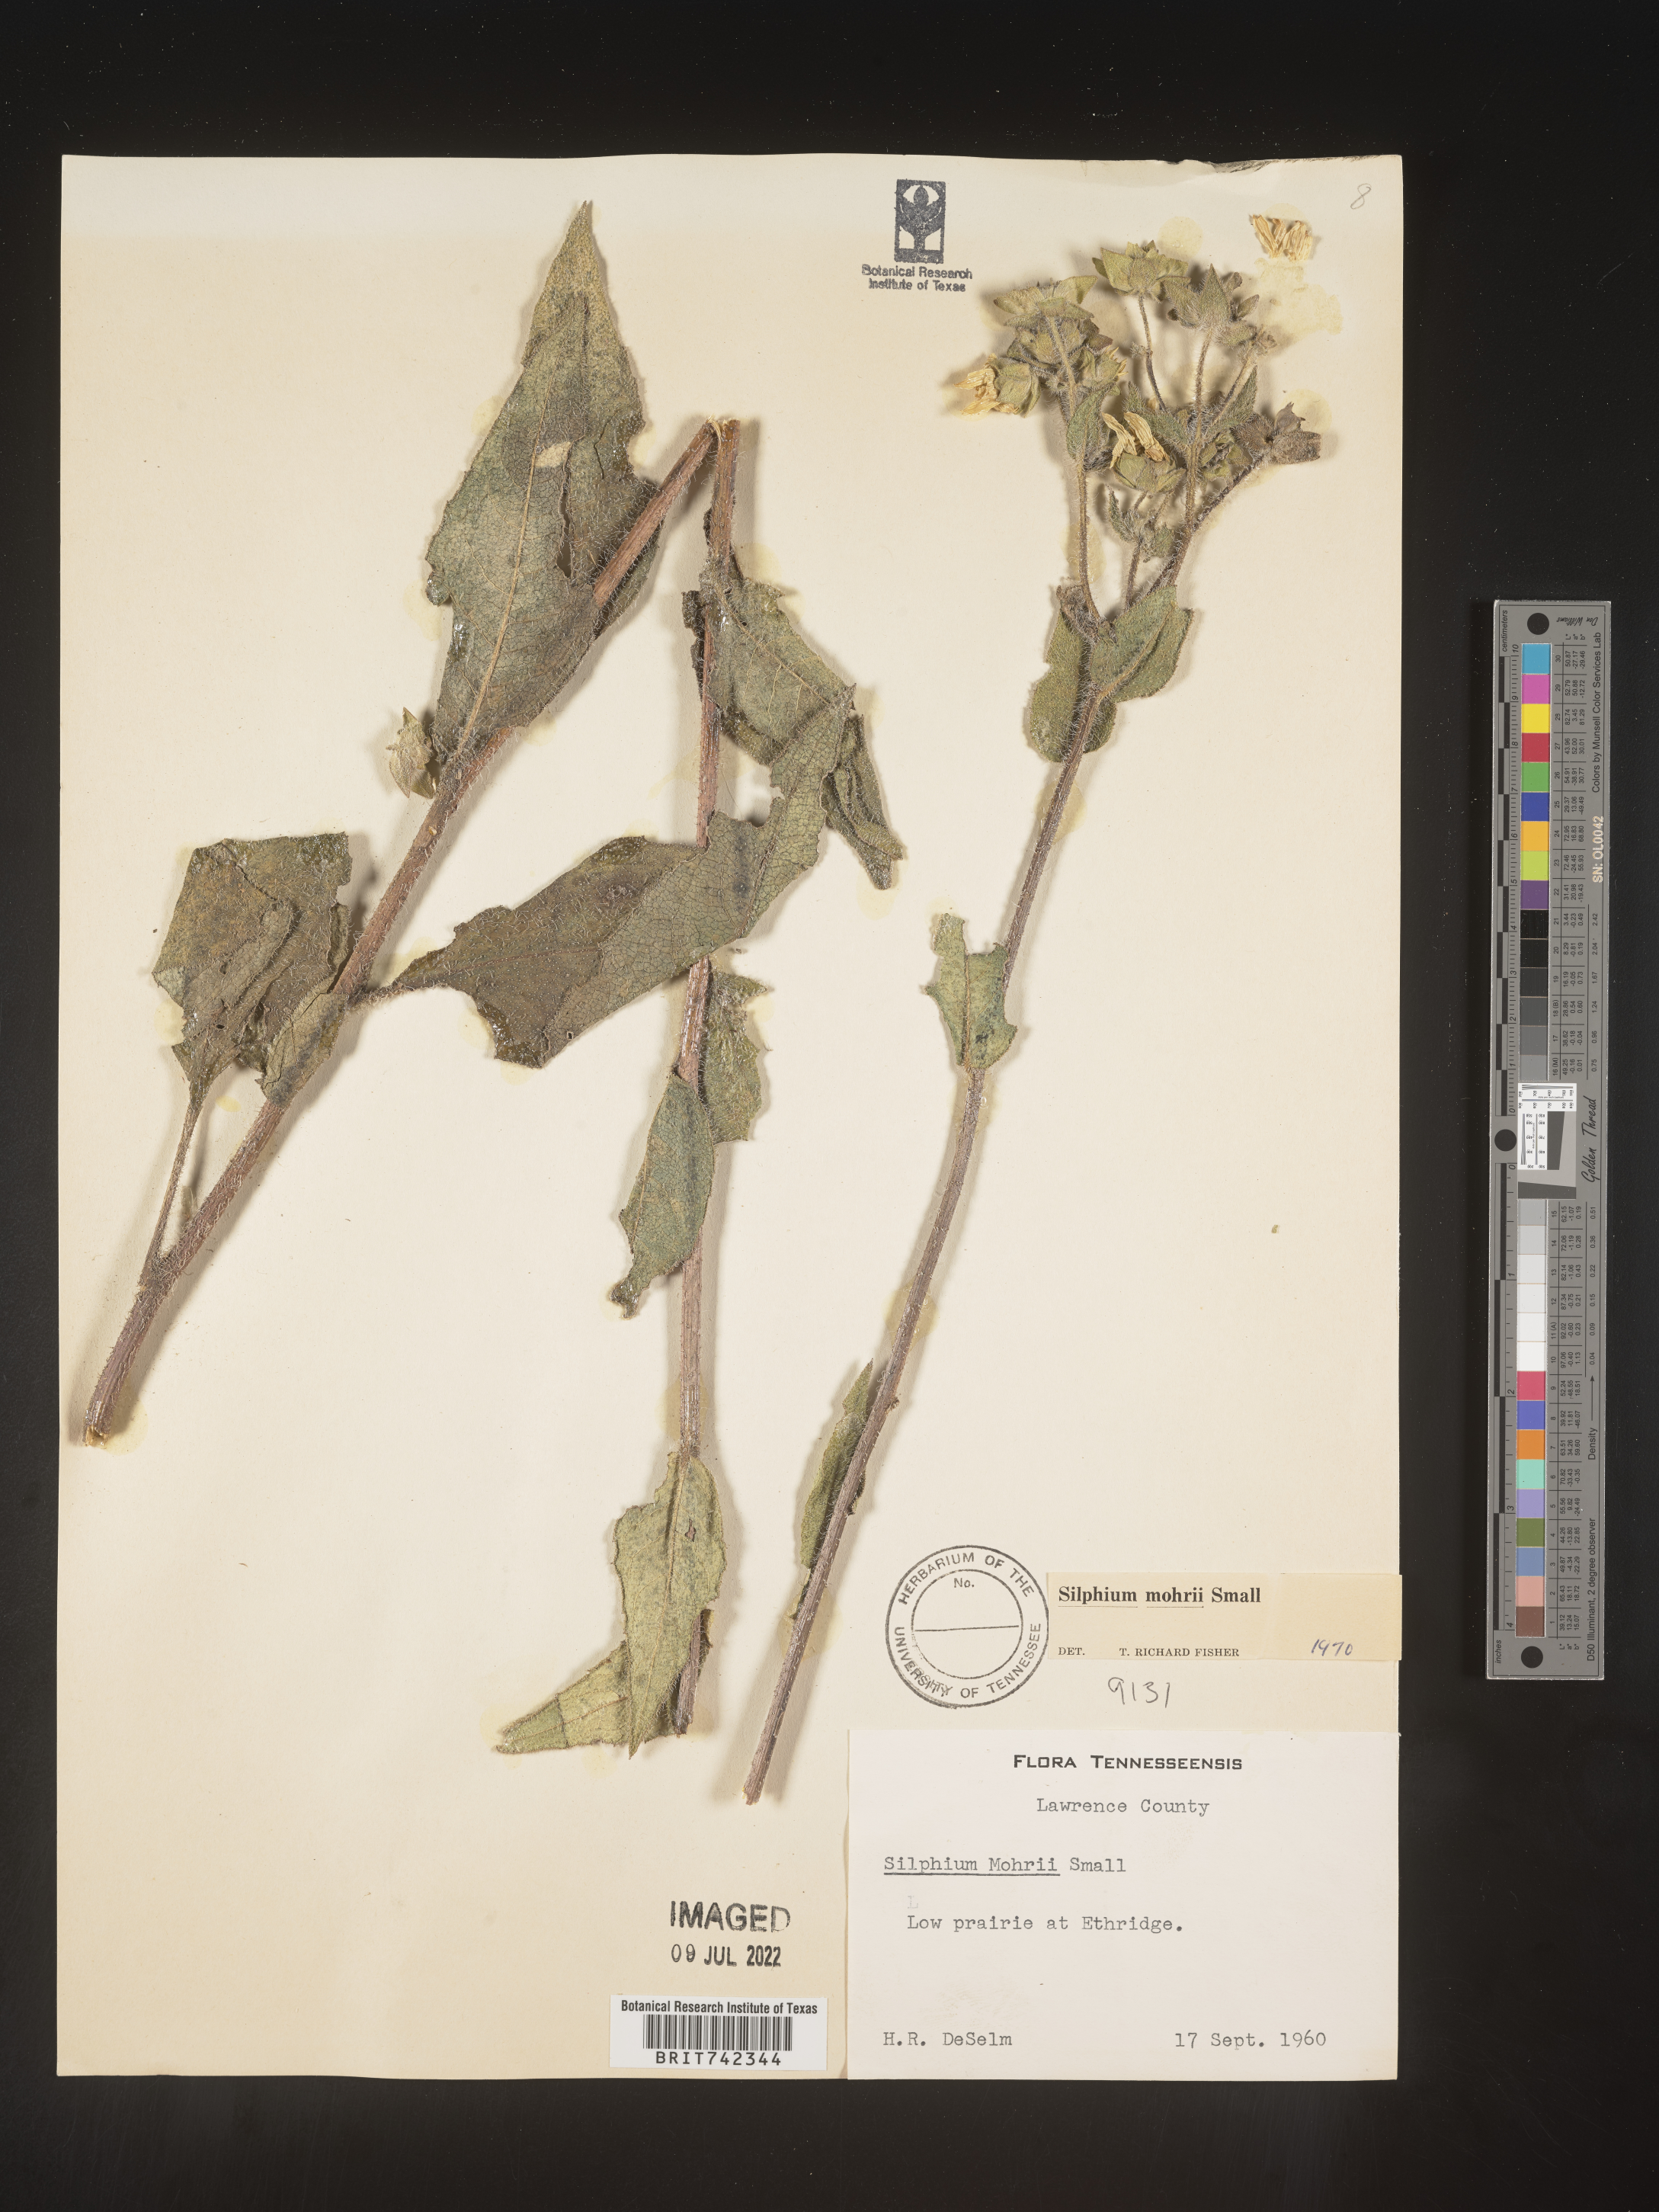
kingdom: Plantae
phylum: Tracheophyta
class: Magnoliopsida
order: Asterales
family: Asteraceae
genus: Silphium
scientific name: Silphium mohrii
